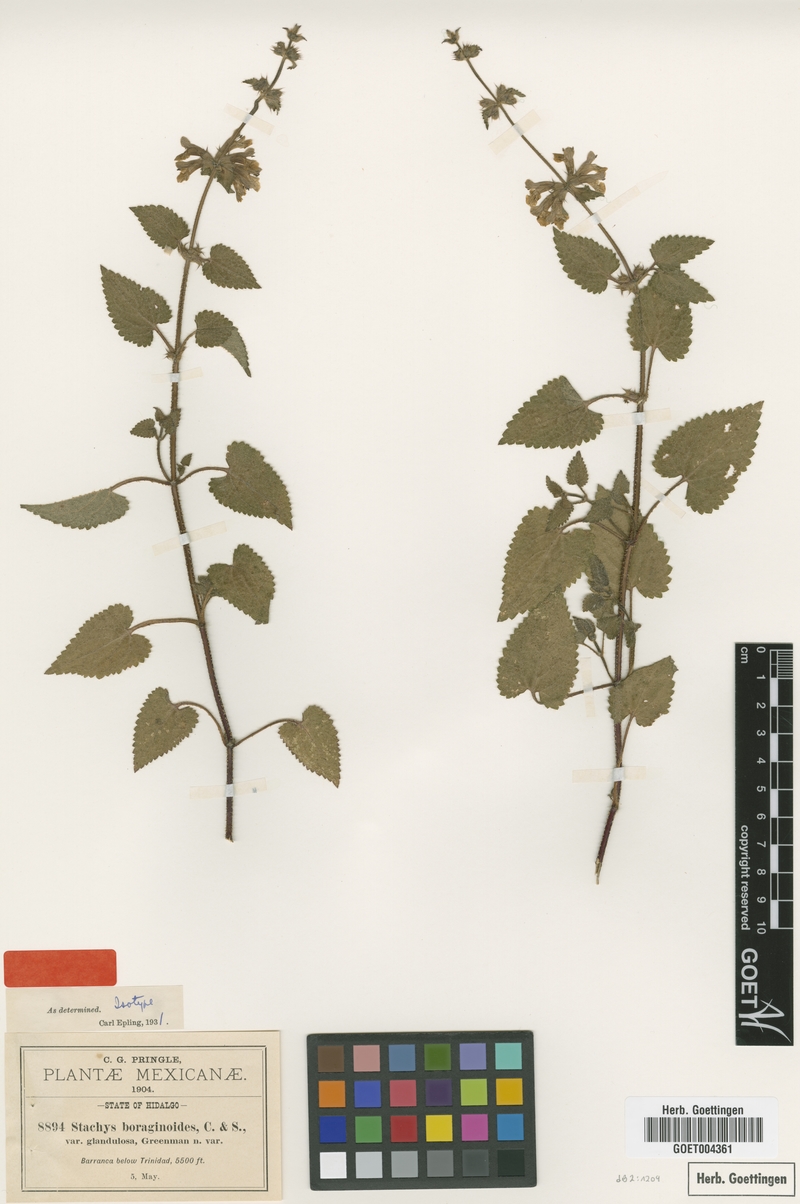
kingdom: Plantae
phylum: Tracheophyta
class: Magnoliopsida
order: Lamiales
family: Lamiaceae
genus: Stachys
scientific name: Stachys boraginoides
